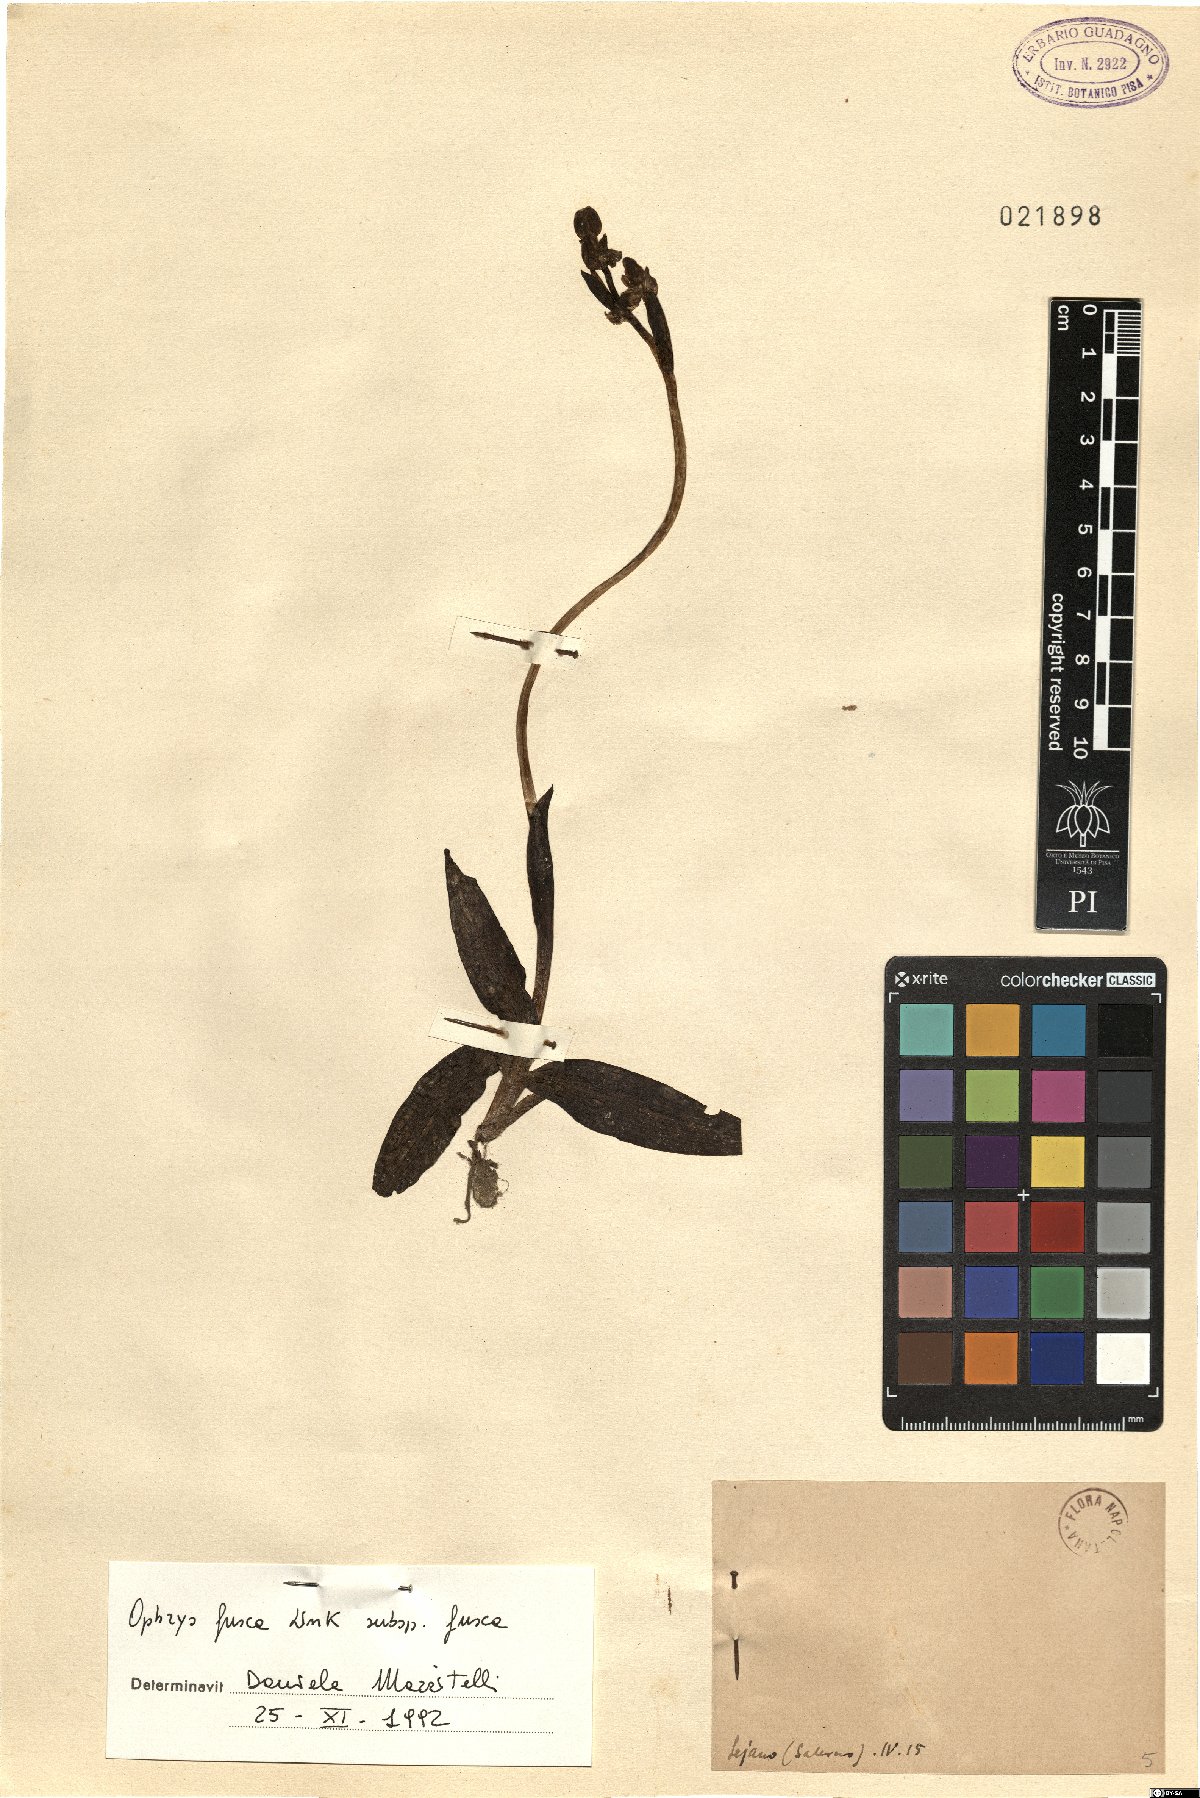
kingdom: Plantae
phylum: Tracheophyta
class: Liliopsida
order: Asparagales
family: Orchidaceae
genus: Ophrys
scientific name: Ophrys fusca
